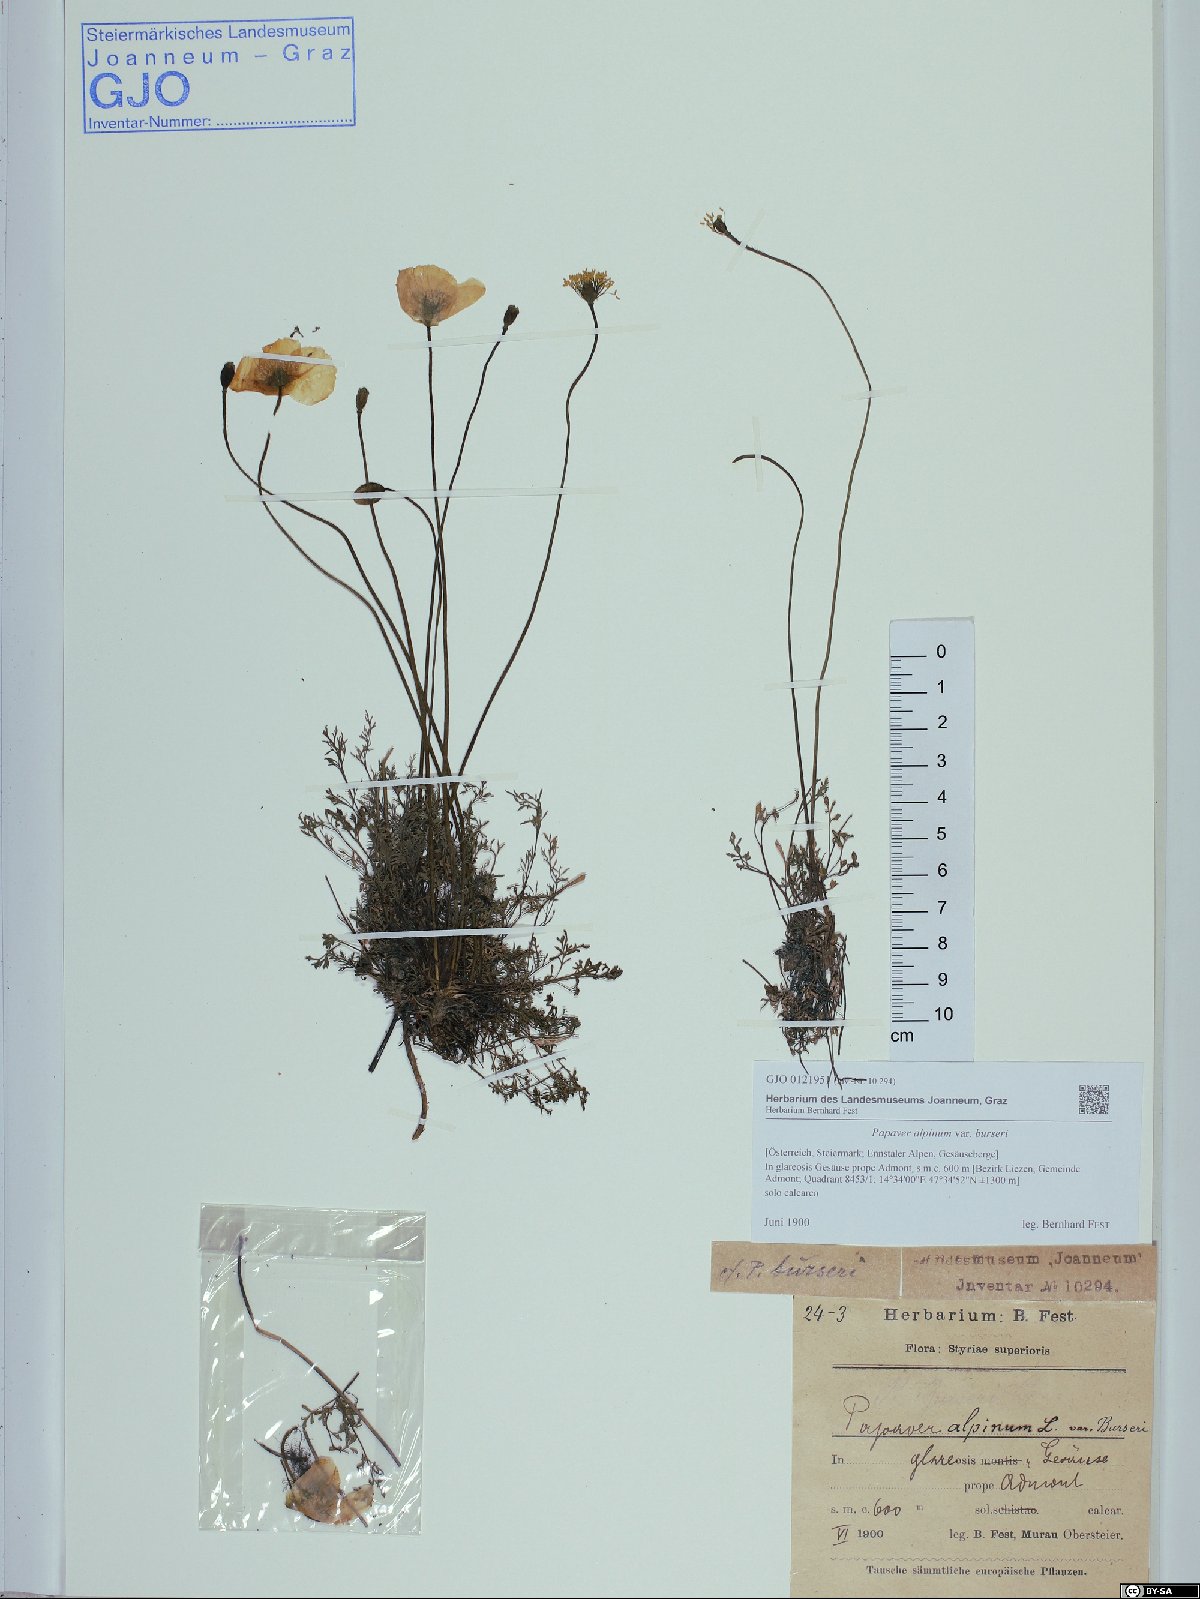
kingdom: Plantae
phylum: Tracheophyta
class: Magnoliopsida
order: Ranunculales
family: Papaveraceae
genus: Papaver
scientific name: Papaver alpinum
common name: Austrian poppy
